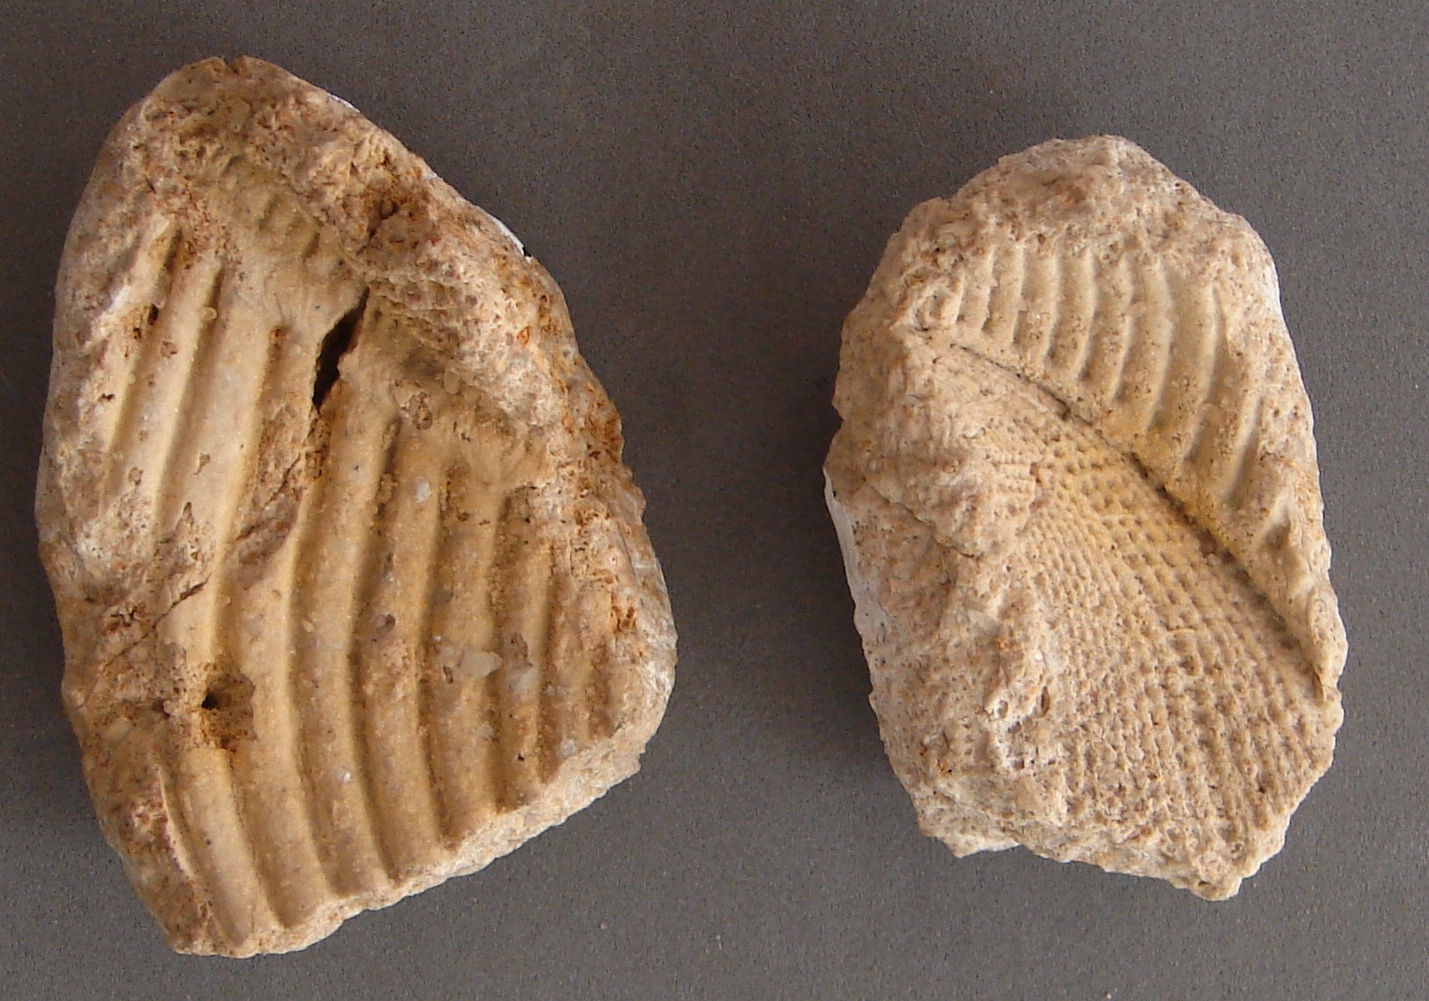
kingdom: Animalia
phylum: Mollusca
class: Bivalvia
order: Trigoniida
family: Trigoniidae
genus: Trigonia
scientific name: Trigonia costata
